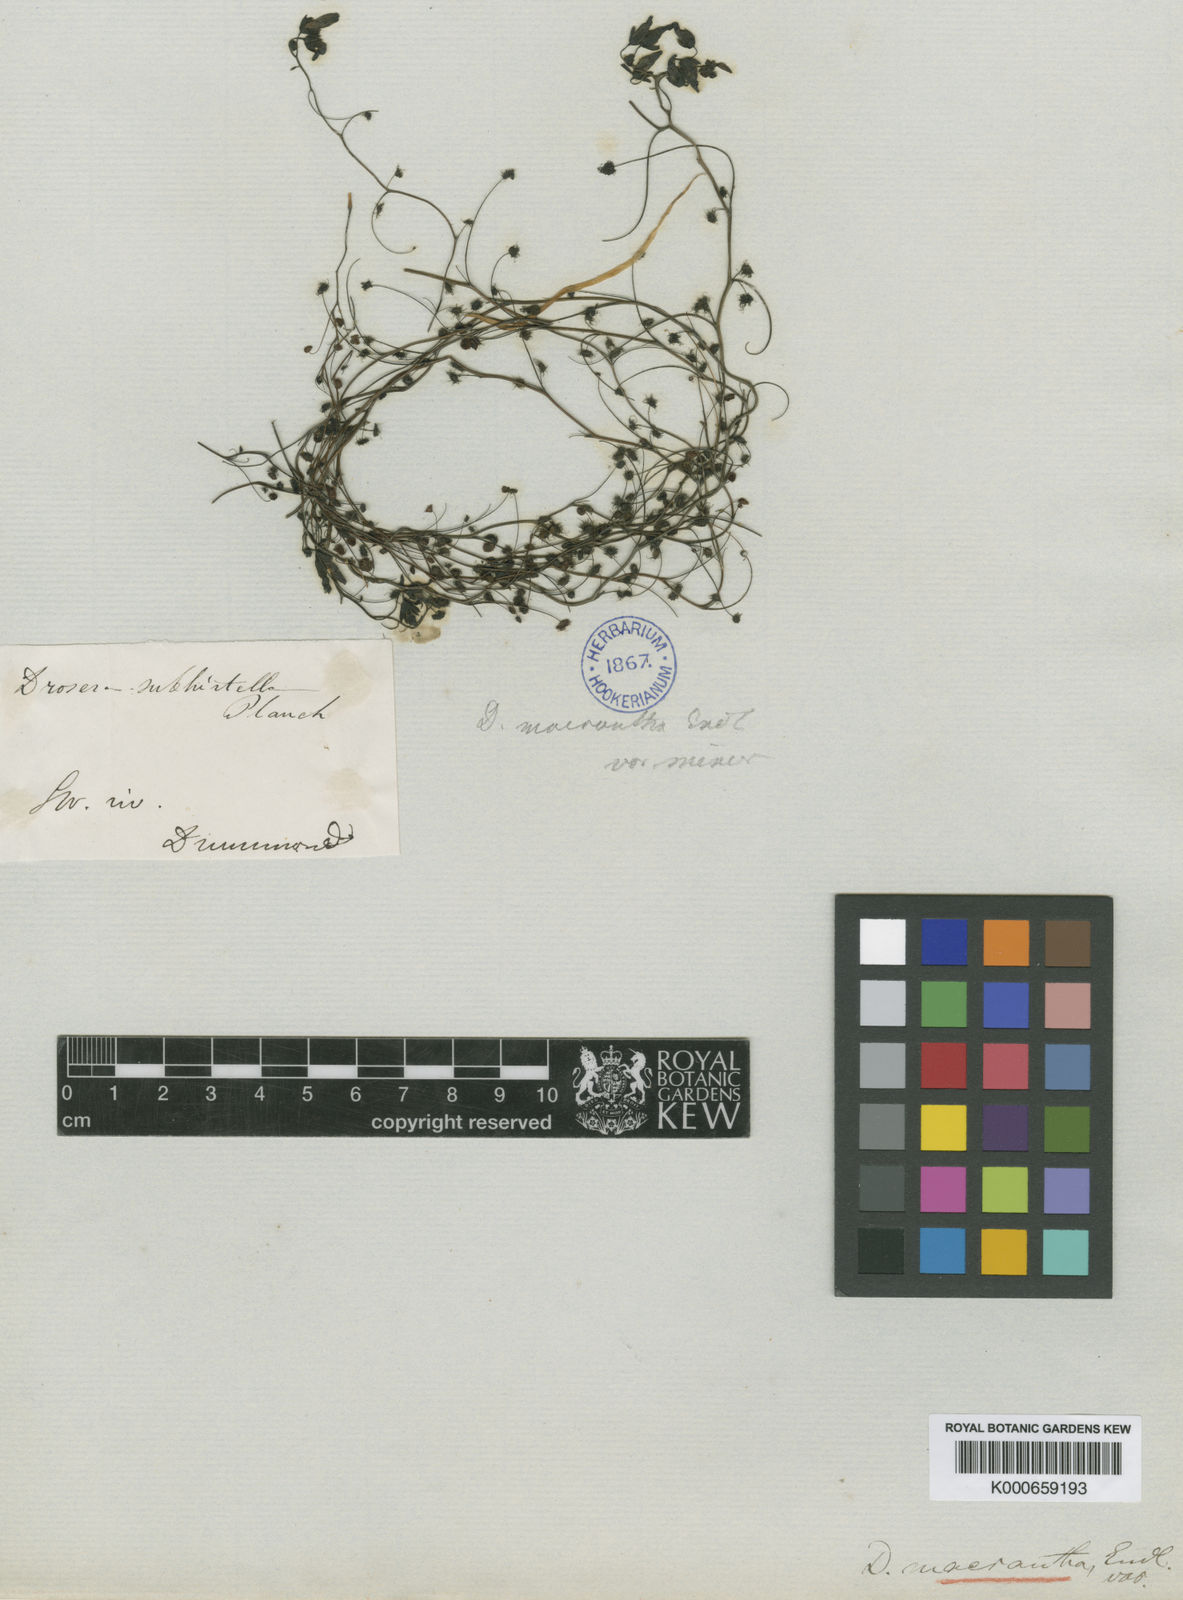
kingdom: Plantae
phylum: Tracheophyta
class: Magnoliopsida
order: Caryophyllales
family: Droseraceae
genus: Drosera
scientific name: Drosera subhirtella
